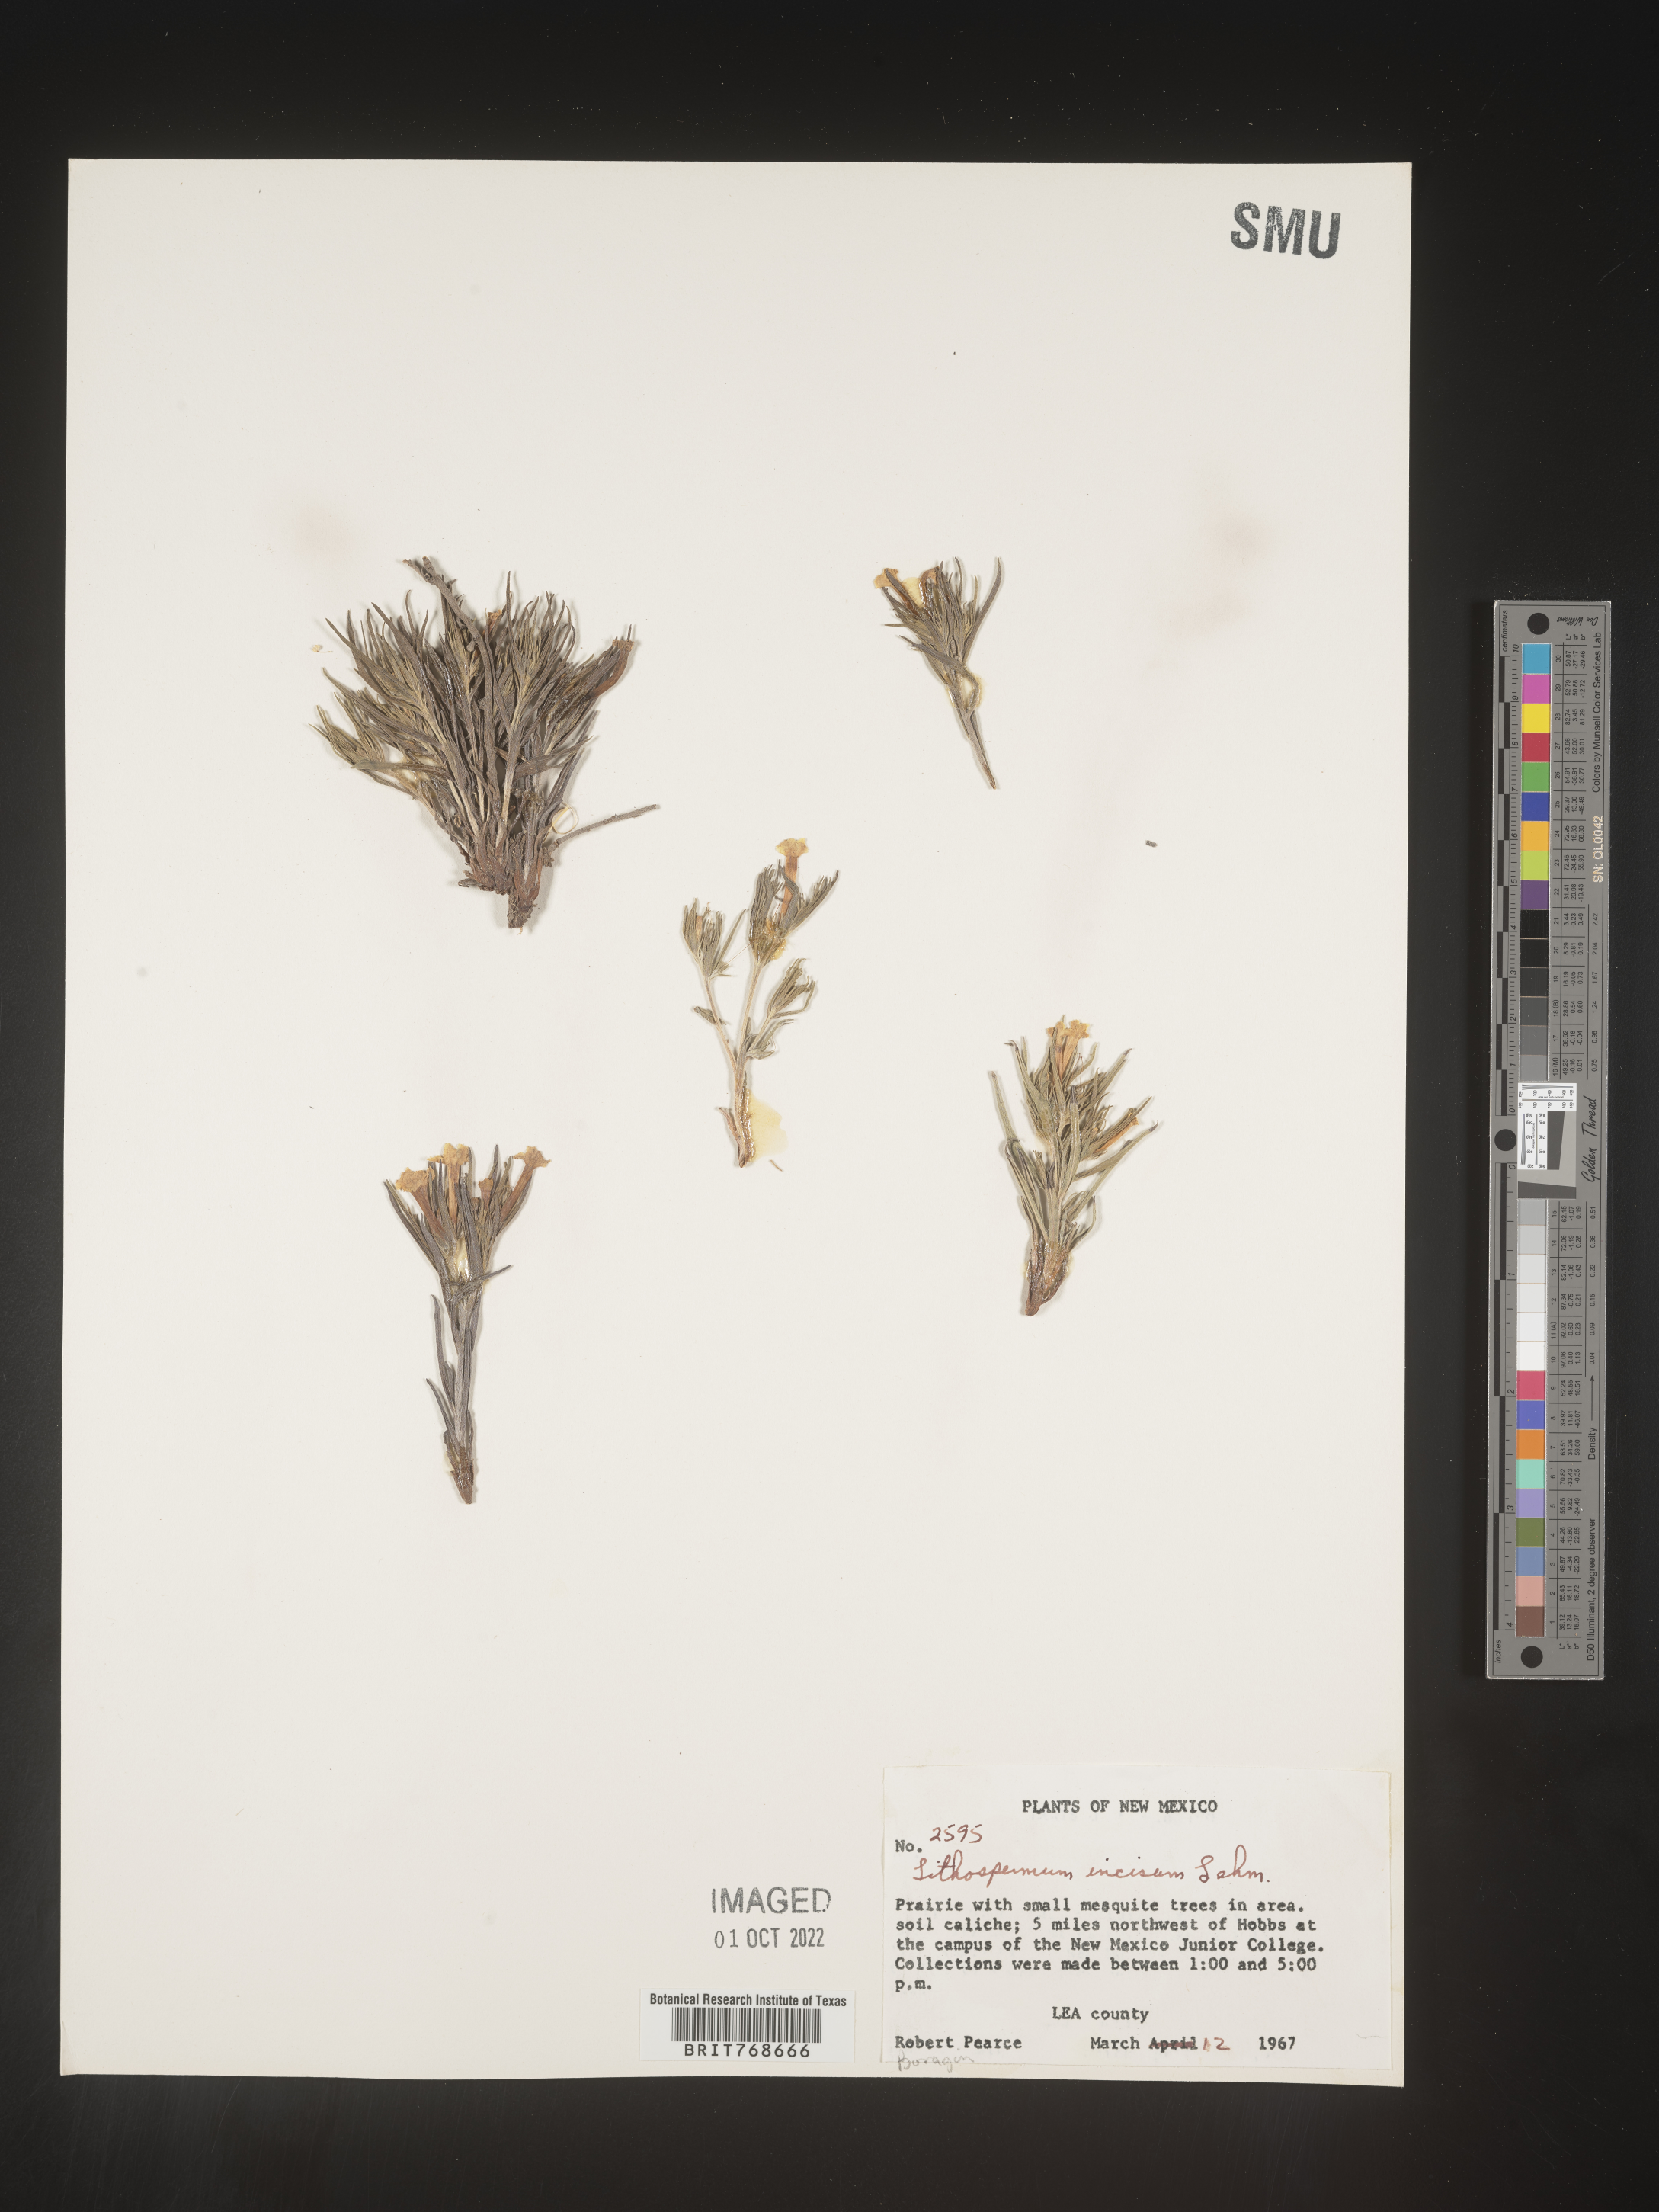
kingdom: Plantae
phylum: Tracheophyta
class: Magnoliopsida
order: Boraginales
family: Boraginaceae
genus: Lithospermum
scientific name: Lithospermum incisum
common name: Fringed gromwell
